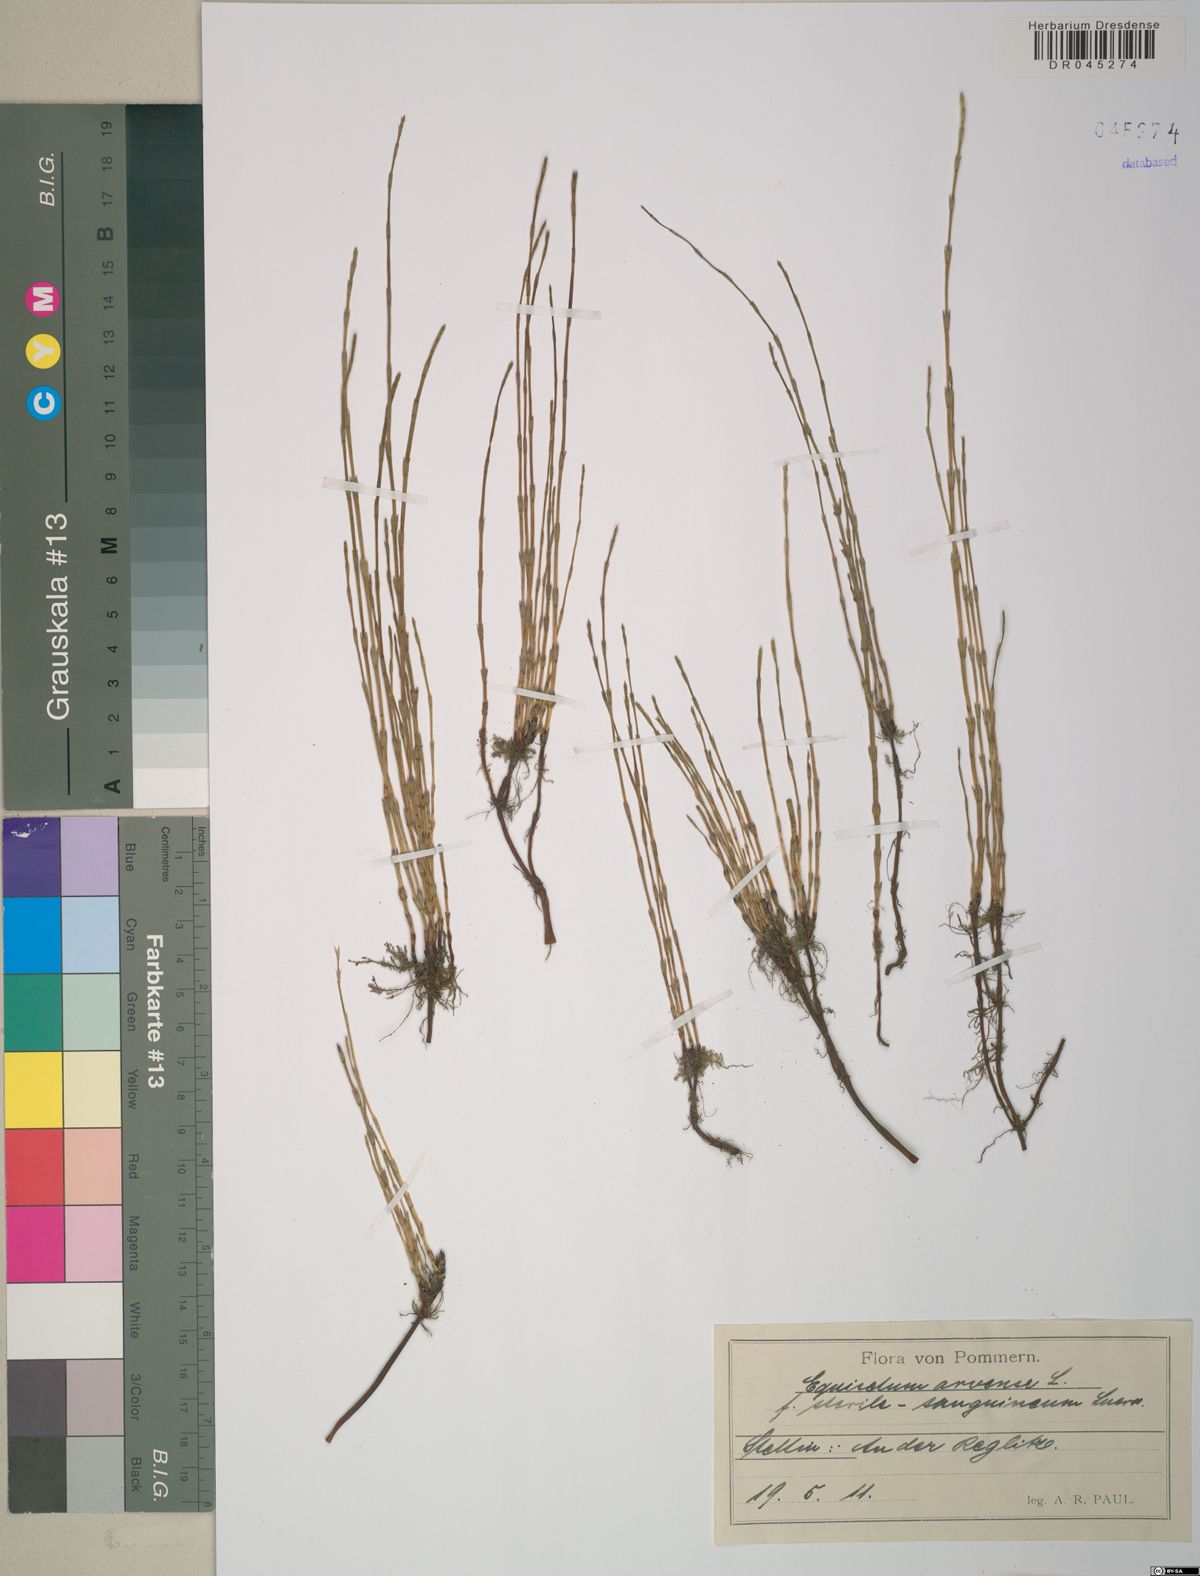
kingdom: Plantae
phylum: Tracheophyta
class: Polypodiopsida
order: Equisetales
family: Equisetaceae
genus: Equisetum
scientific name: Equisetum arvense
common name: Field horsetail
